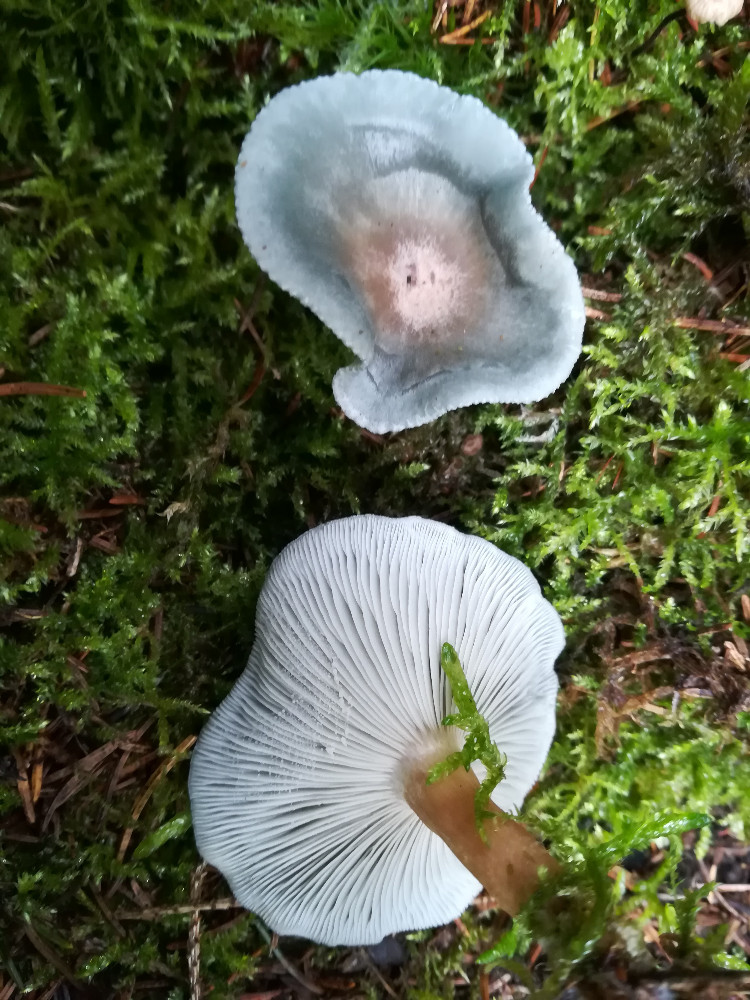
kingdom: Fungi
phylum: Basidiomycota
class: Agaricomycetes
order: Agaricales
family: Tricholomataceae
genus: Clitocybe
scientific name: Clitocybe odora
